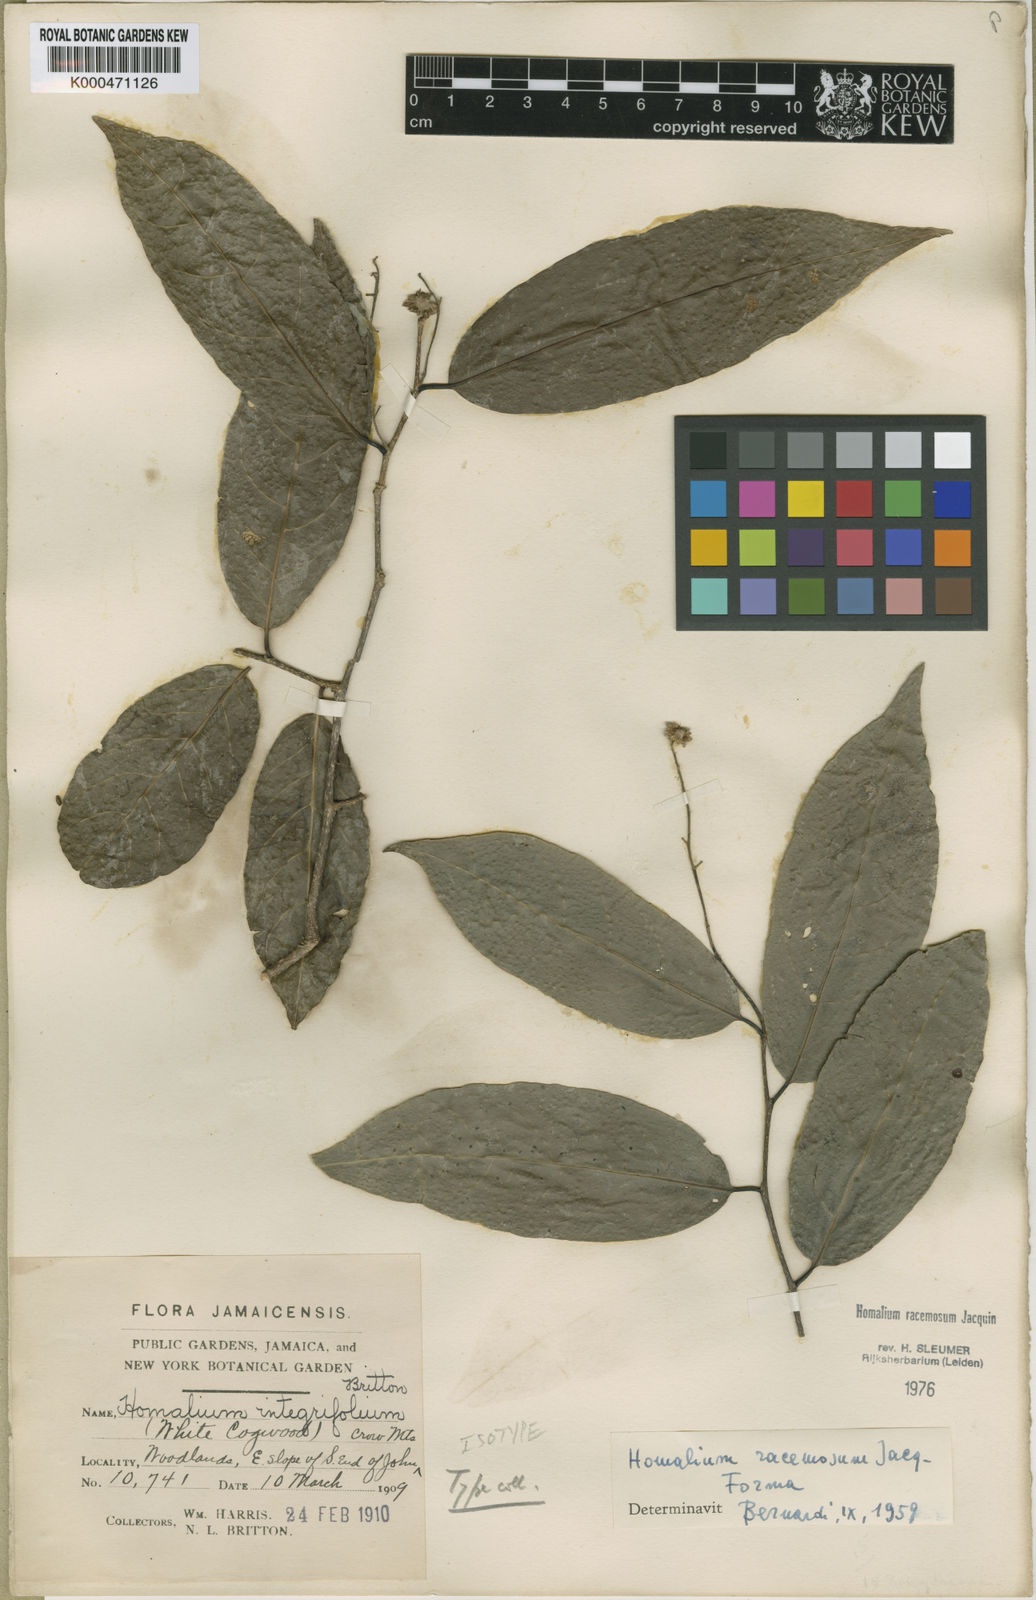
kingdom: Plantae
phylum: Tracheophyta
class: Magnoliopsida
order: Malpighiales
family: Salicaceae
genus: Homalium
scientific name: Homalium racemosum
